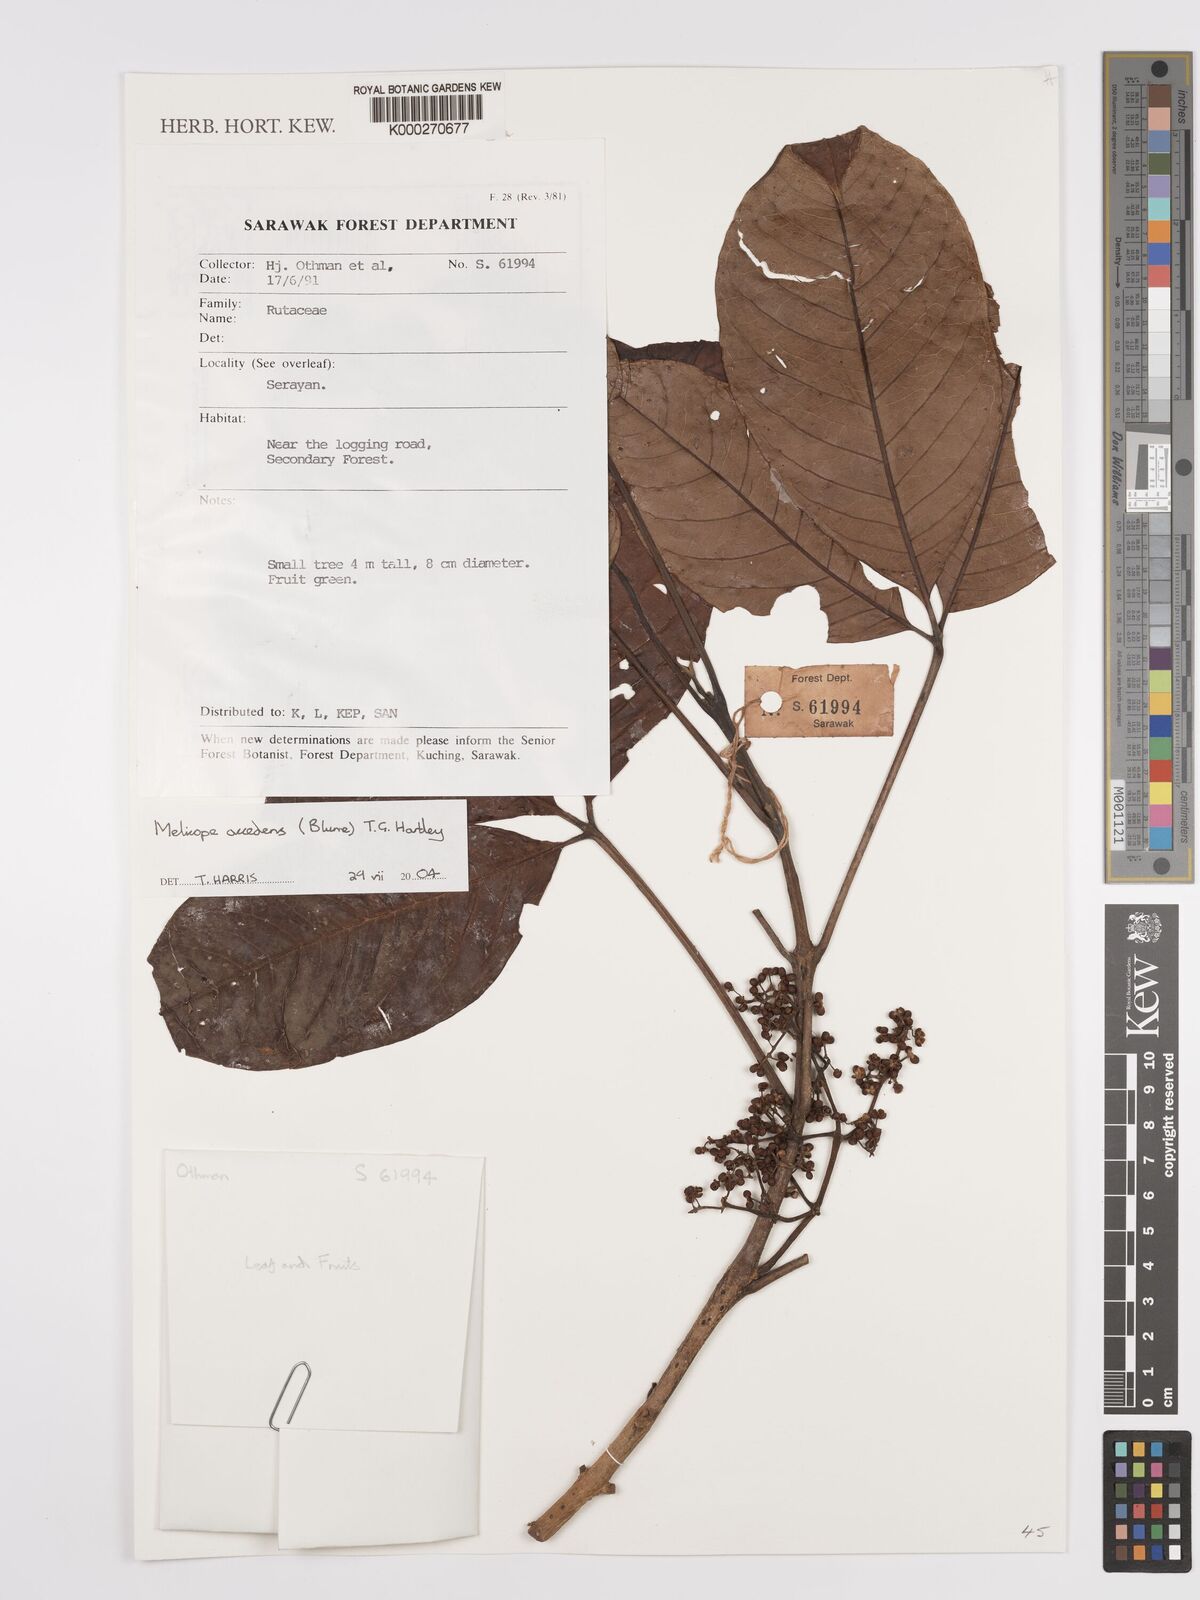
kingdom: Plantae
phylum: Tracheophyta
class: Magnoliopsida
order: Sapindales
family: Rutaceae
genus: Melicope
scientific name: Melicope accedens
